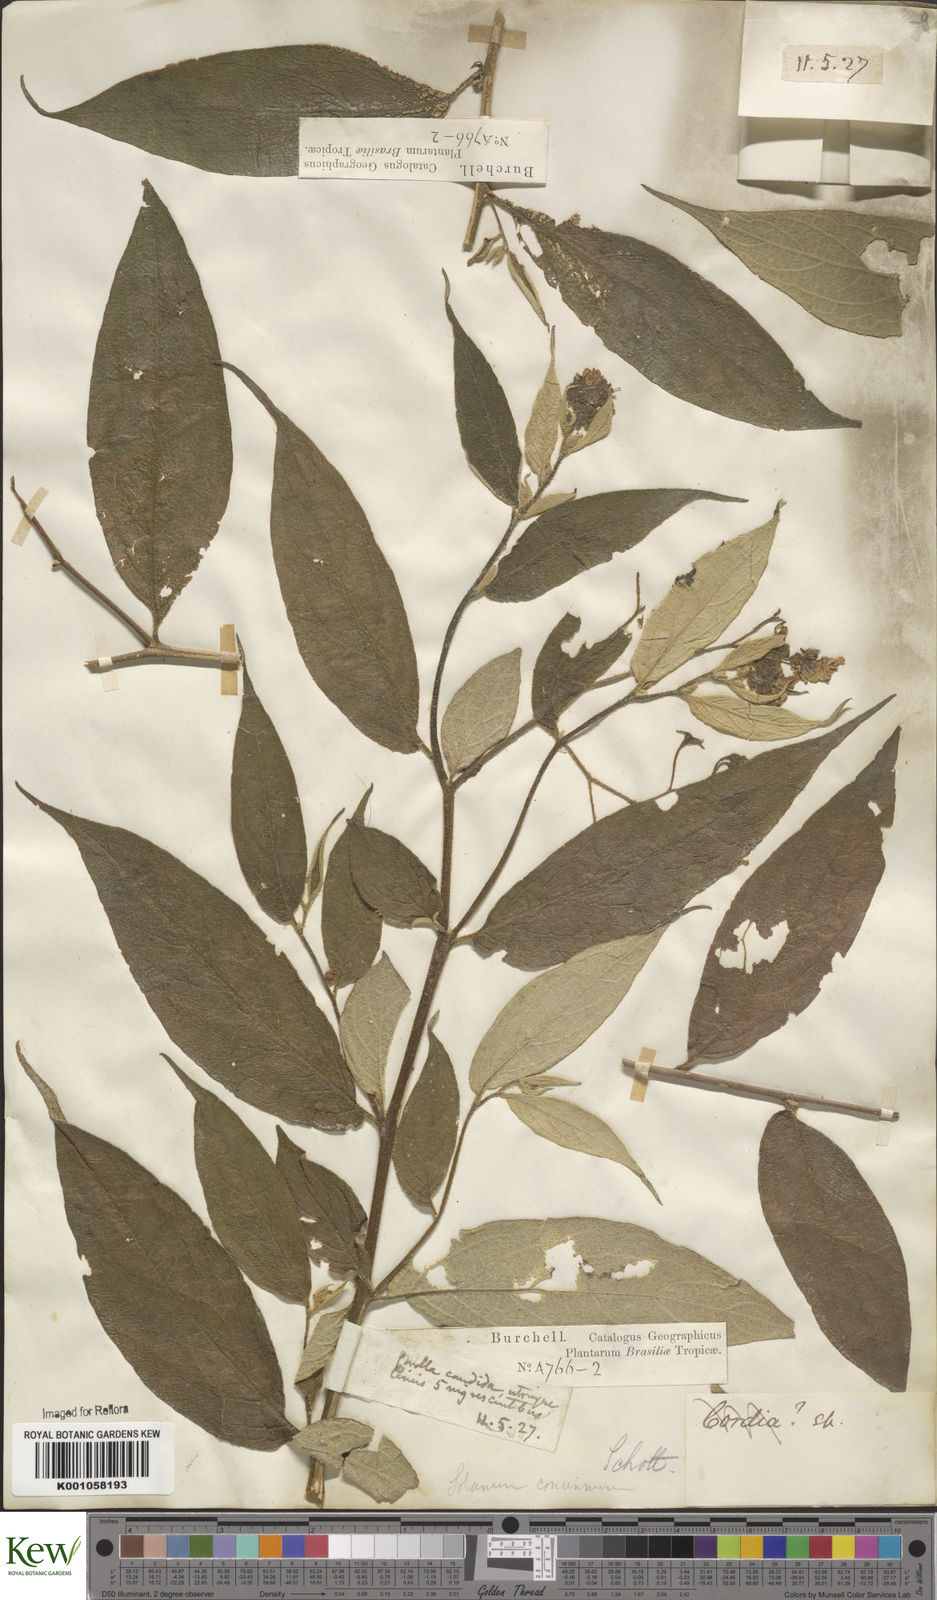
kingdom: Plantae
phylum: Tracheophyta
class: Magnoliopsida
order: Solanales
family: Solanaceae
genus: Solanum
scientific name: Solanum concinnum
